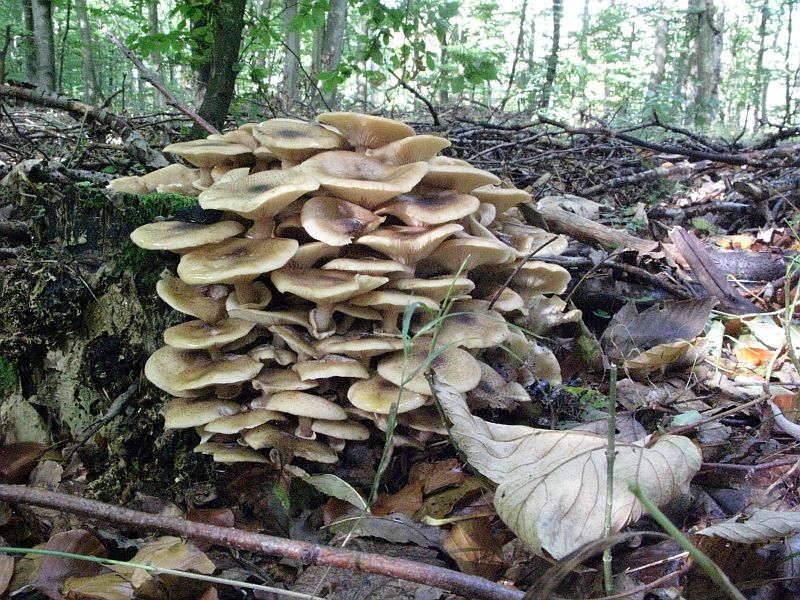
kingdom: Fungi
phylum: Basidiomycota
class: Agaricomycetes
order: Agaricales
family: Physalacriaceae
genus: Armillaria
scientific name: Armillaria mellea
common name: ægte honningsvamp
